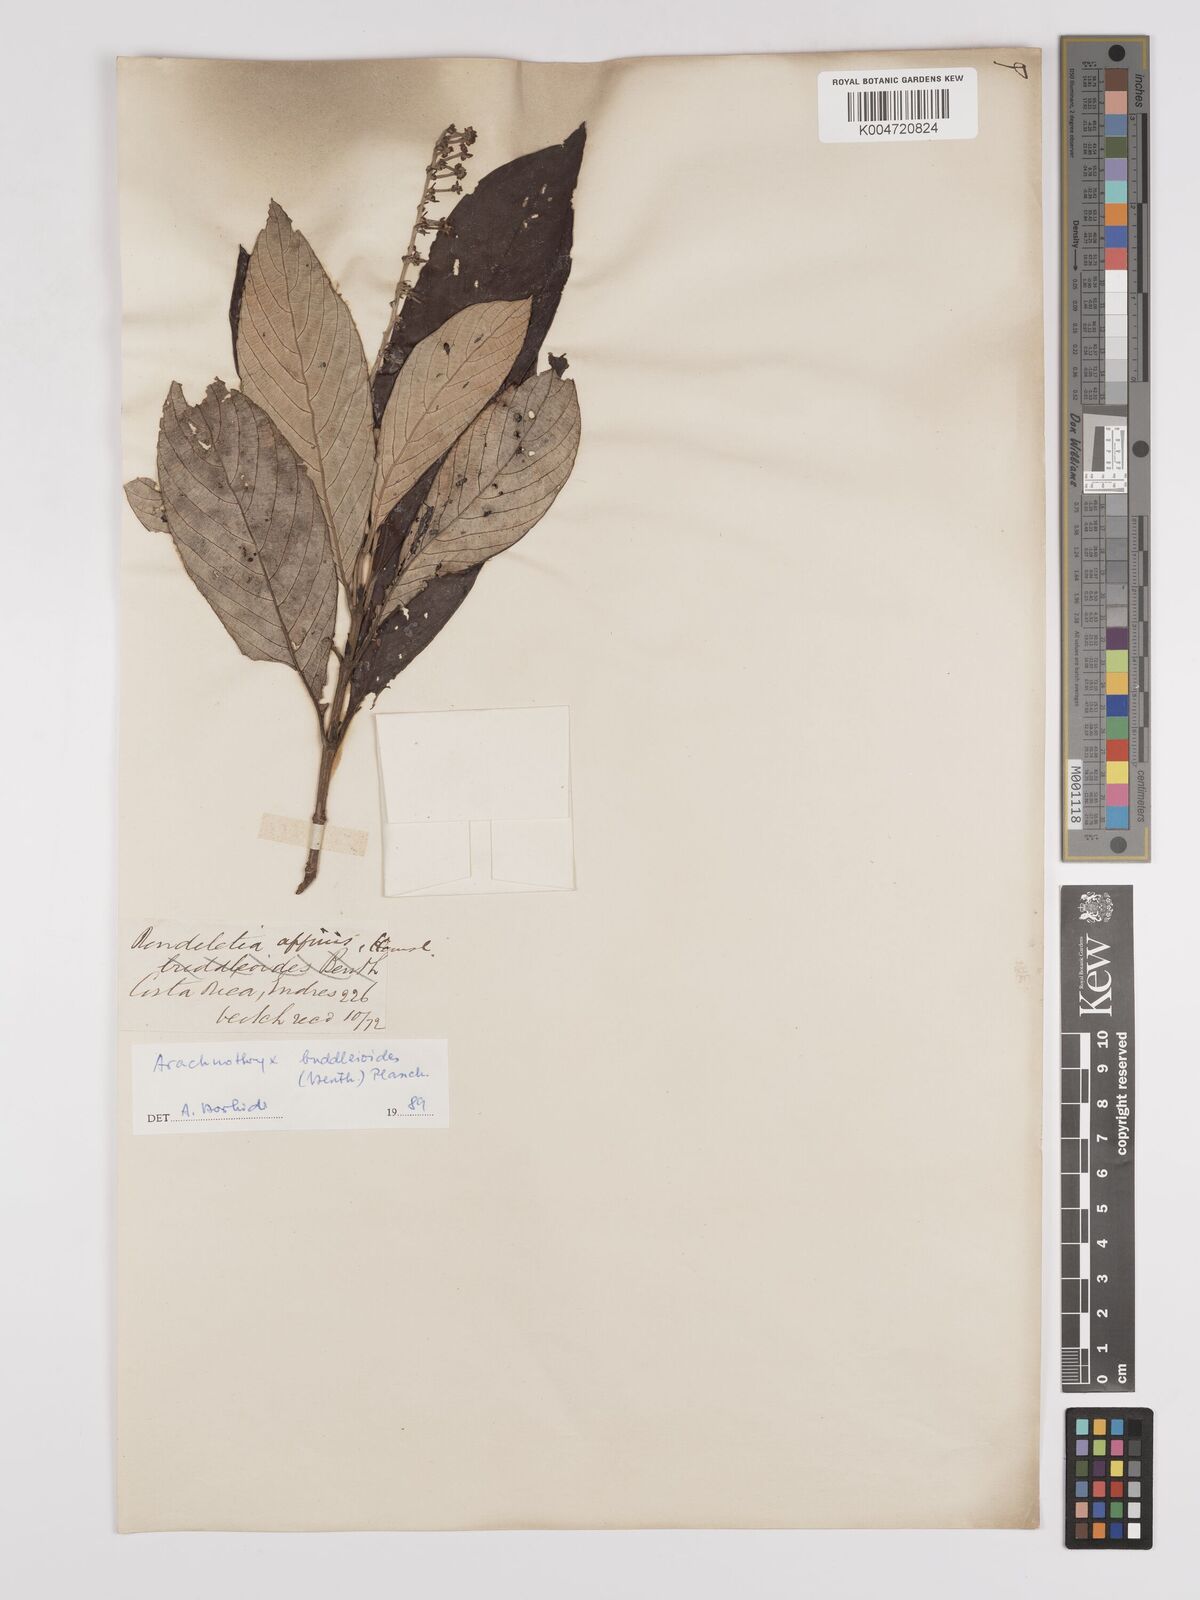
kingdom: Plantae
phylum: Tracheophyta
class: Magnoliopsida
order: Gentianales
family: Rubiaceae
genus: Arachnothryx
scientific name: Arachnothryx buddleioides
